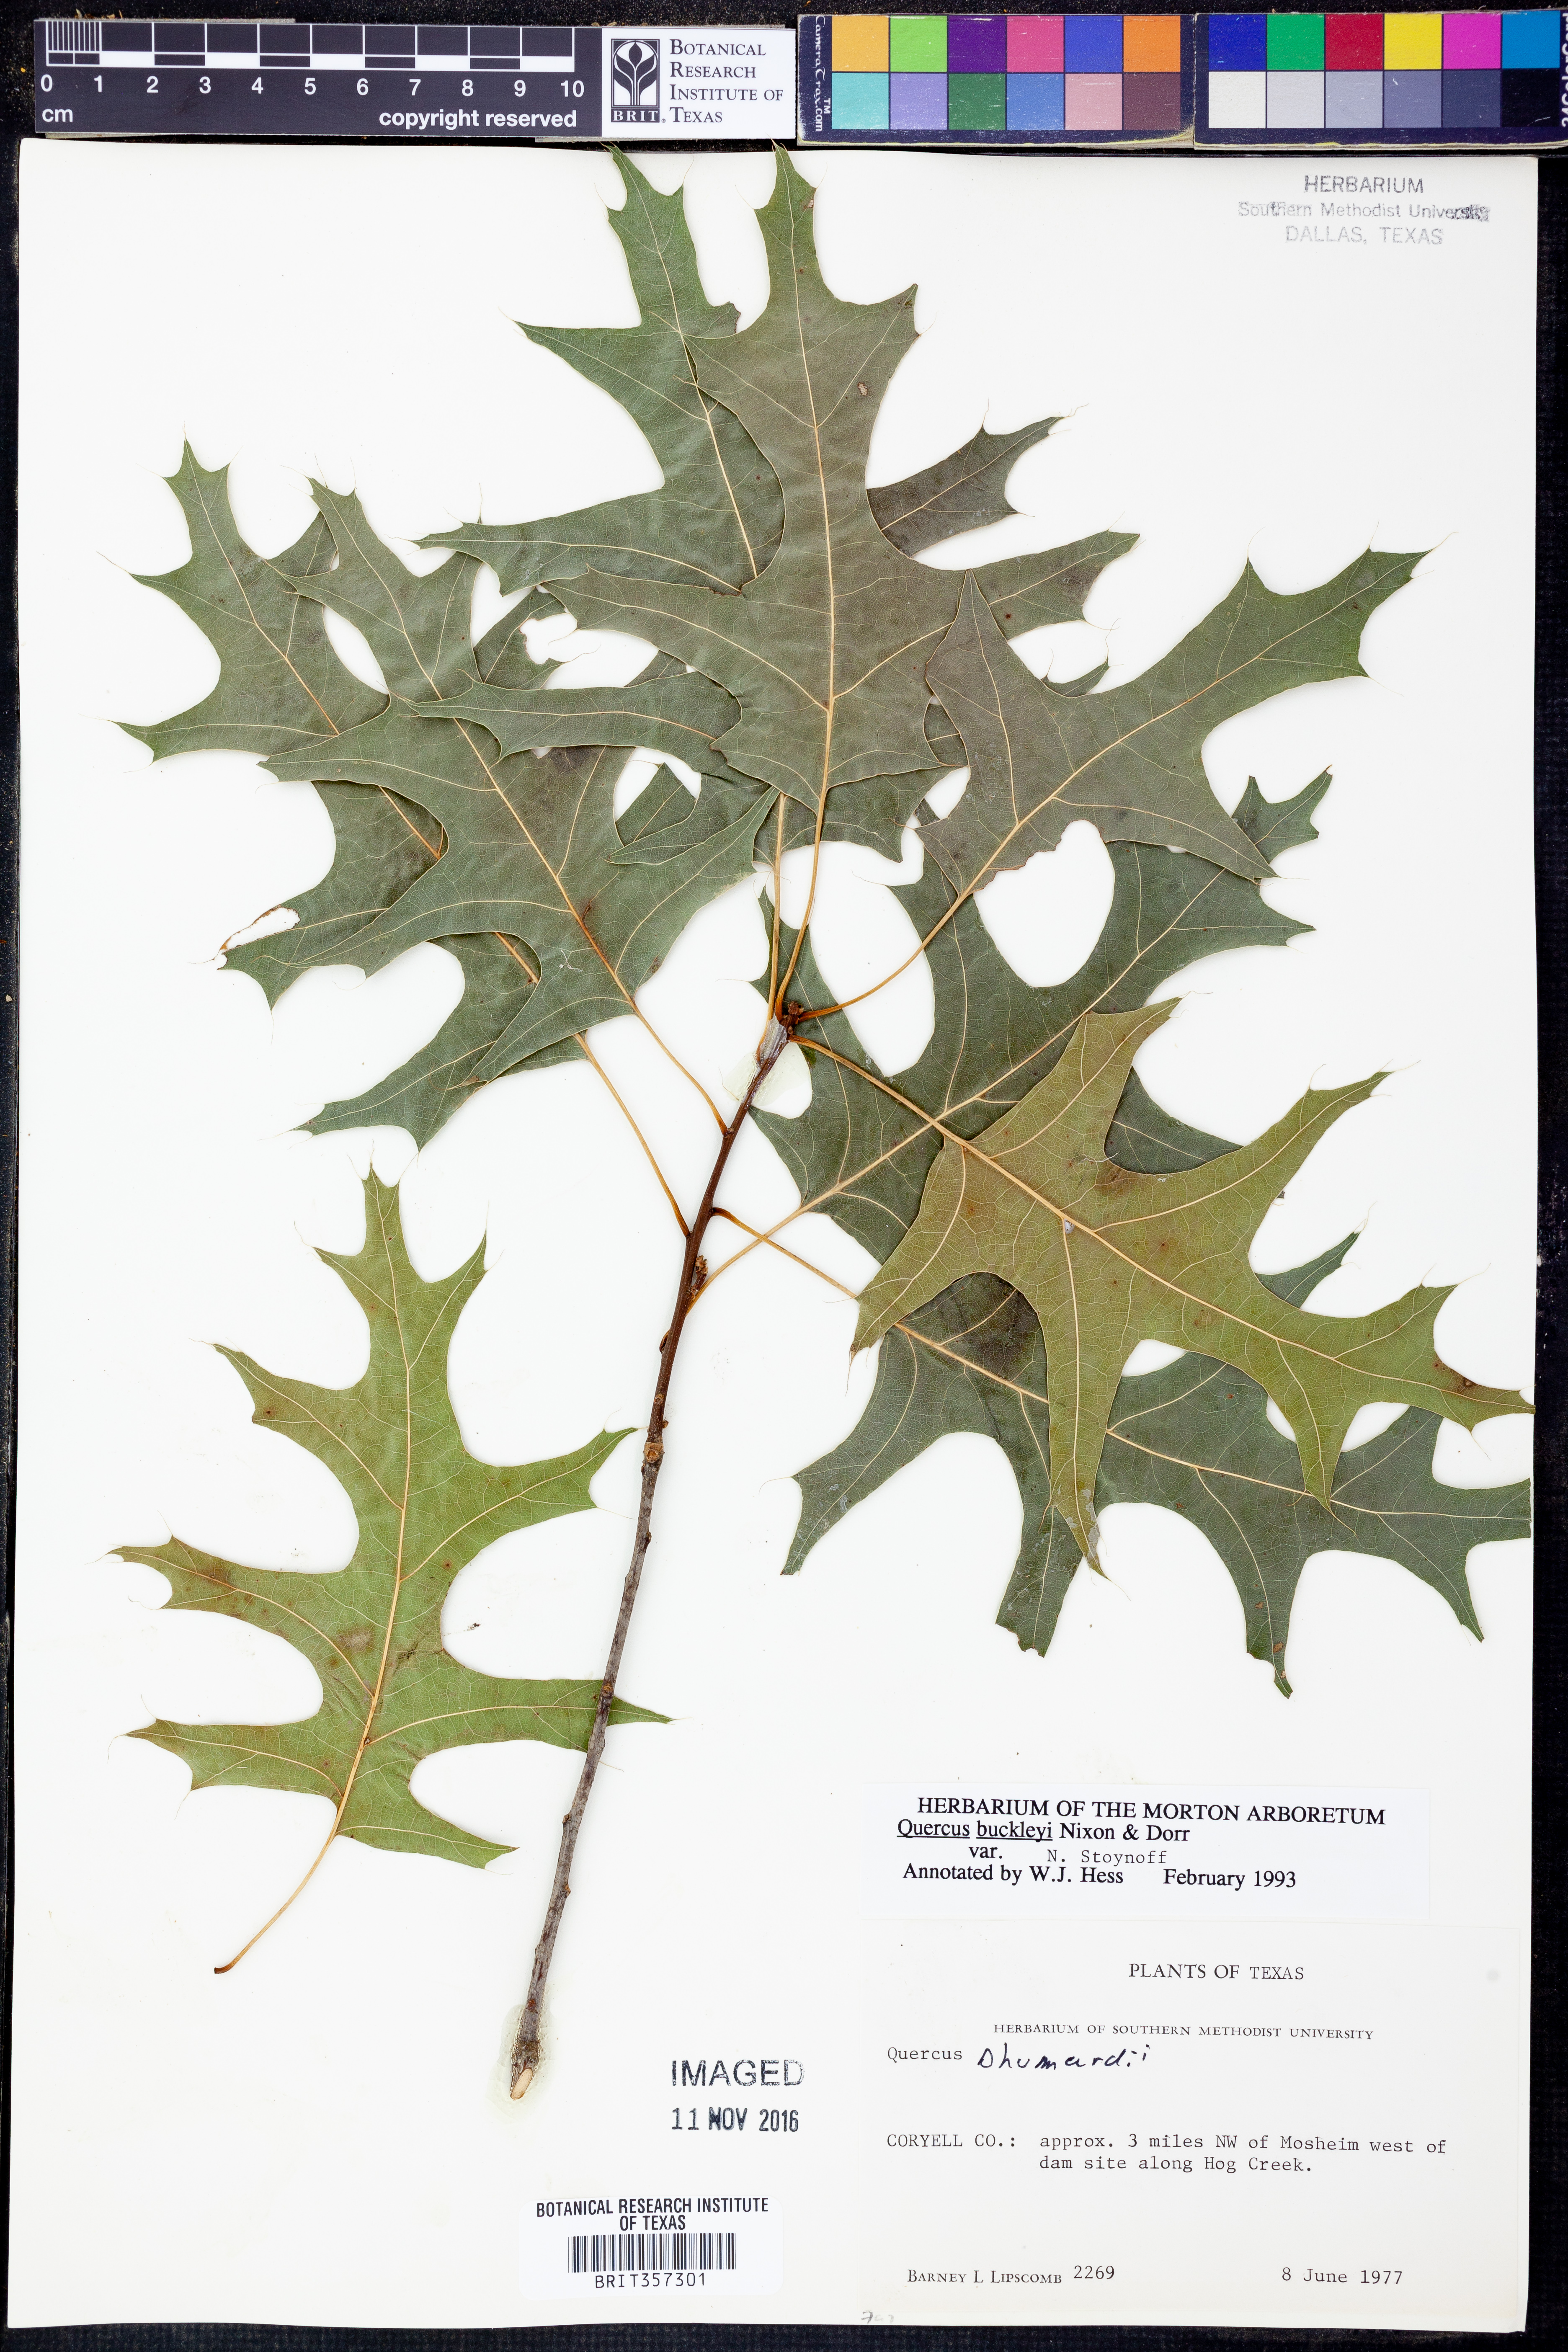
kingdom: Plantae
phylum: Tracheophyta
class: Magnoliopsida
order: Fagales
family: Fagaceae
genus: Quercus
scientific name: Quercus buckleyi
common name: Buckley oak
